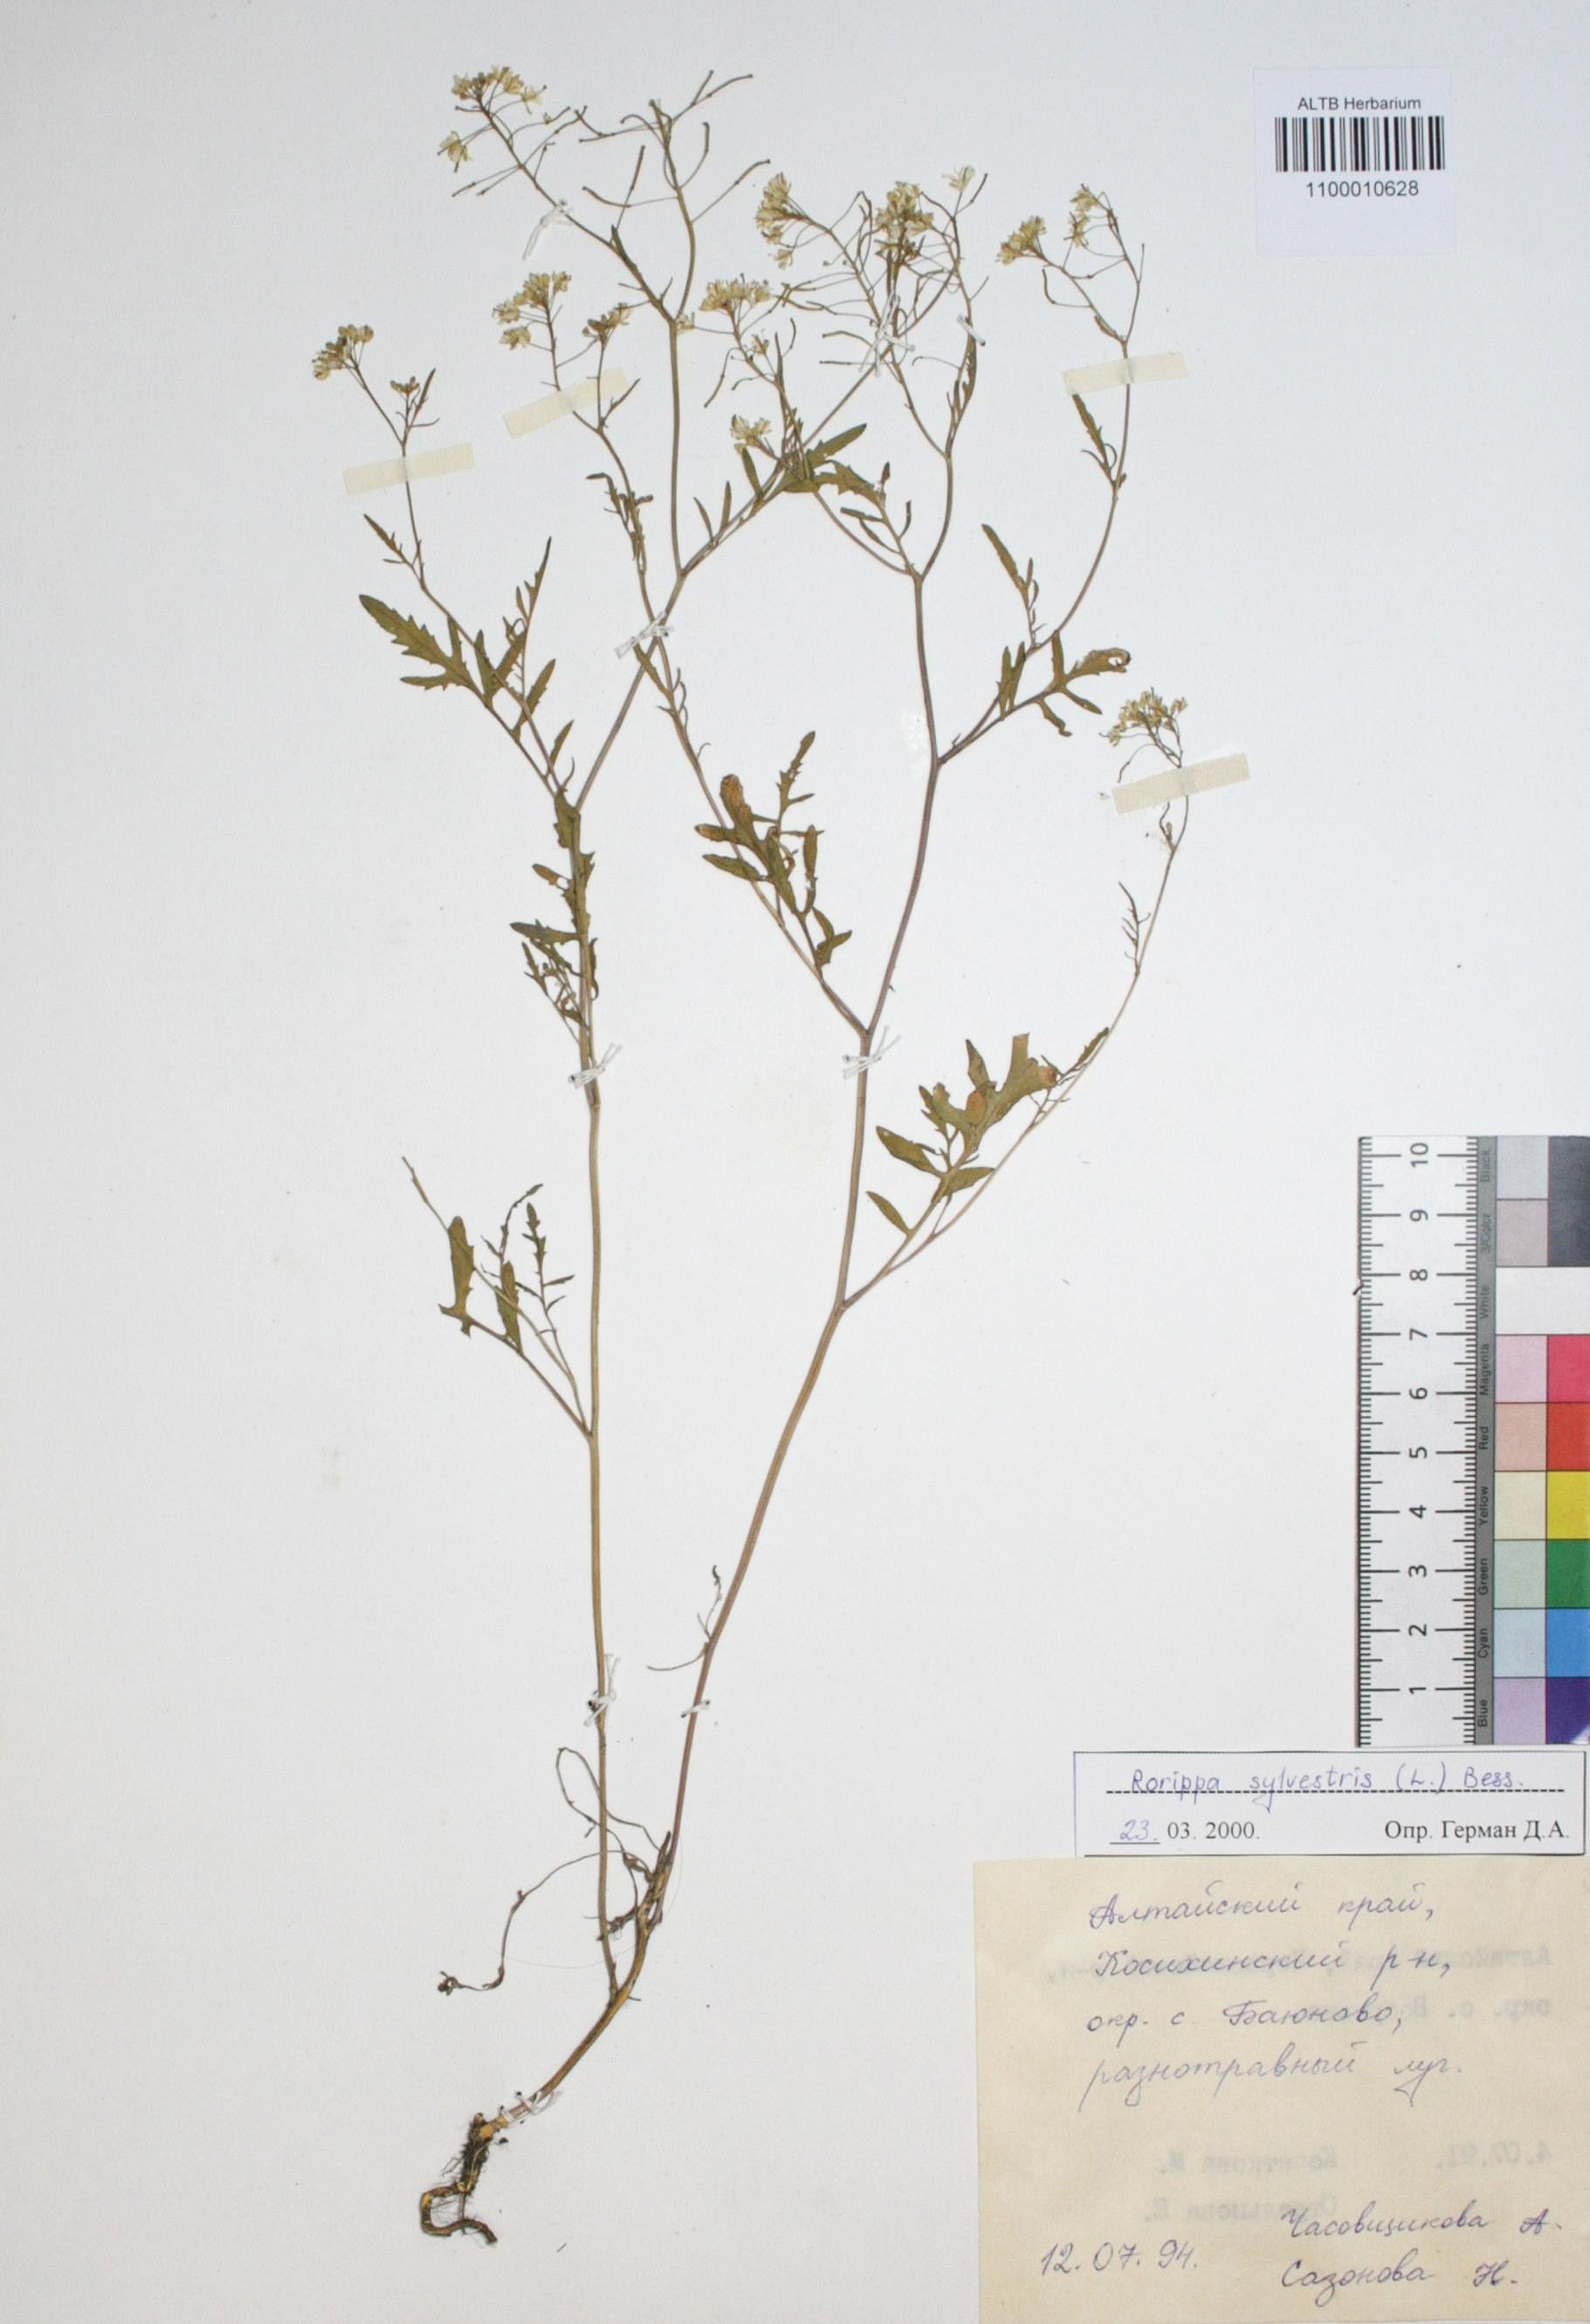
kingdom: Plantae
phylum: Tracheophyta
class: Magnoliopsida
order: Brassicales
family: Brassicaceae
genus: Rorippa
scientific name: Rorippa sylvestris
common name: Creeping yellowcress
